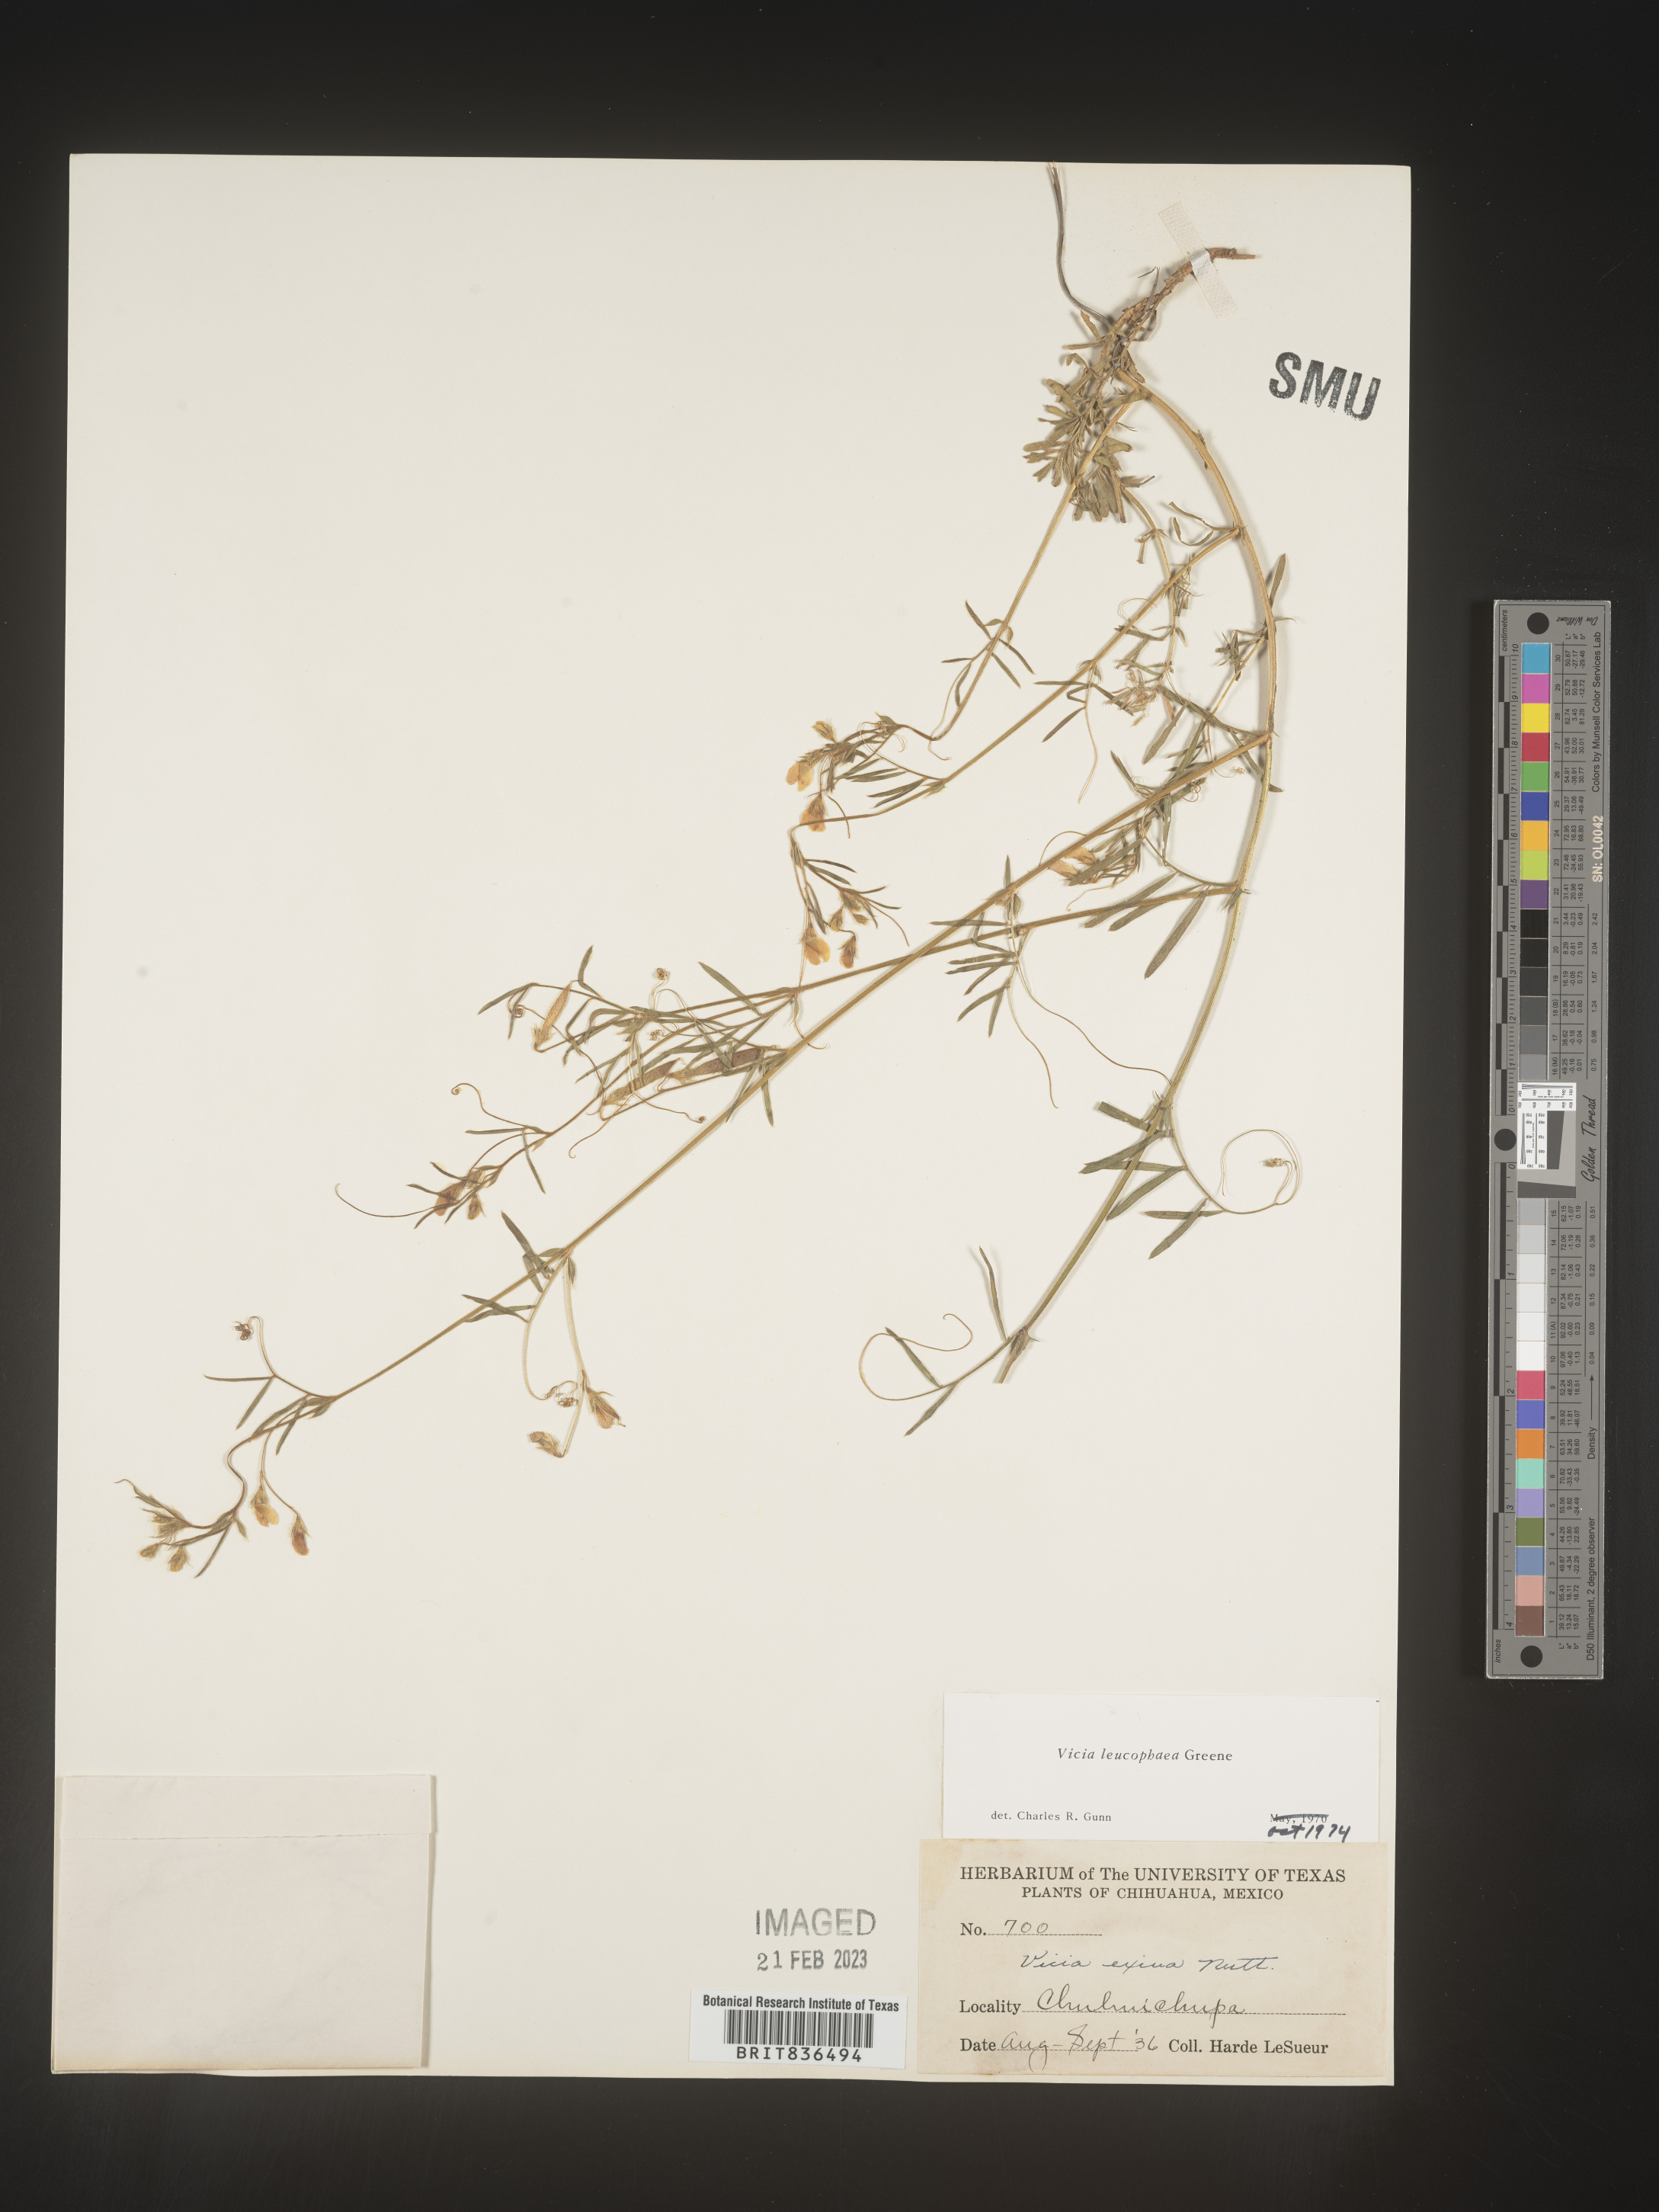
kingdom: Plantae
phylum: Tracheophyta
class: Magnoliopsida
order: Fabales
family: Fabaceae
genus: Vicia
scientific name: Vicia
